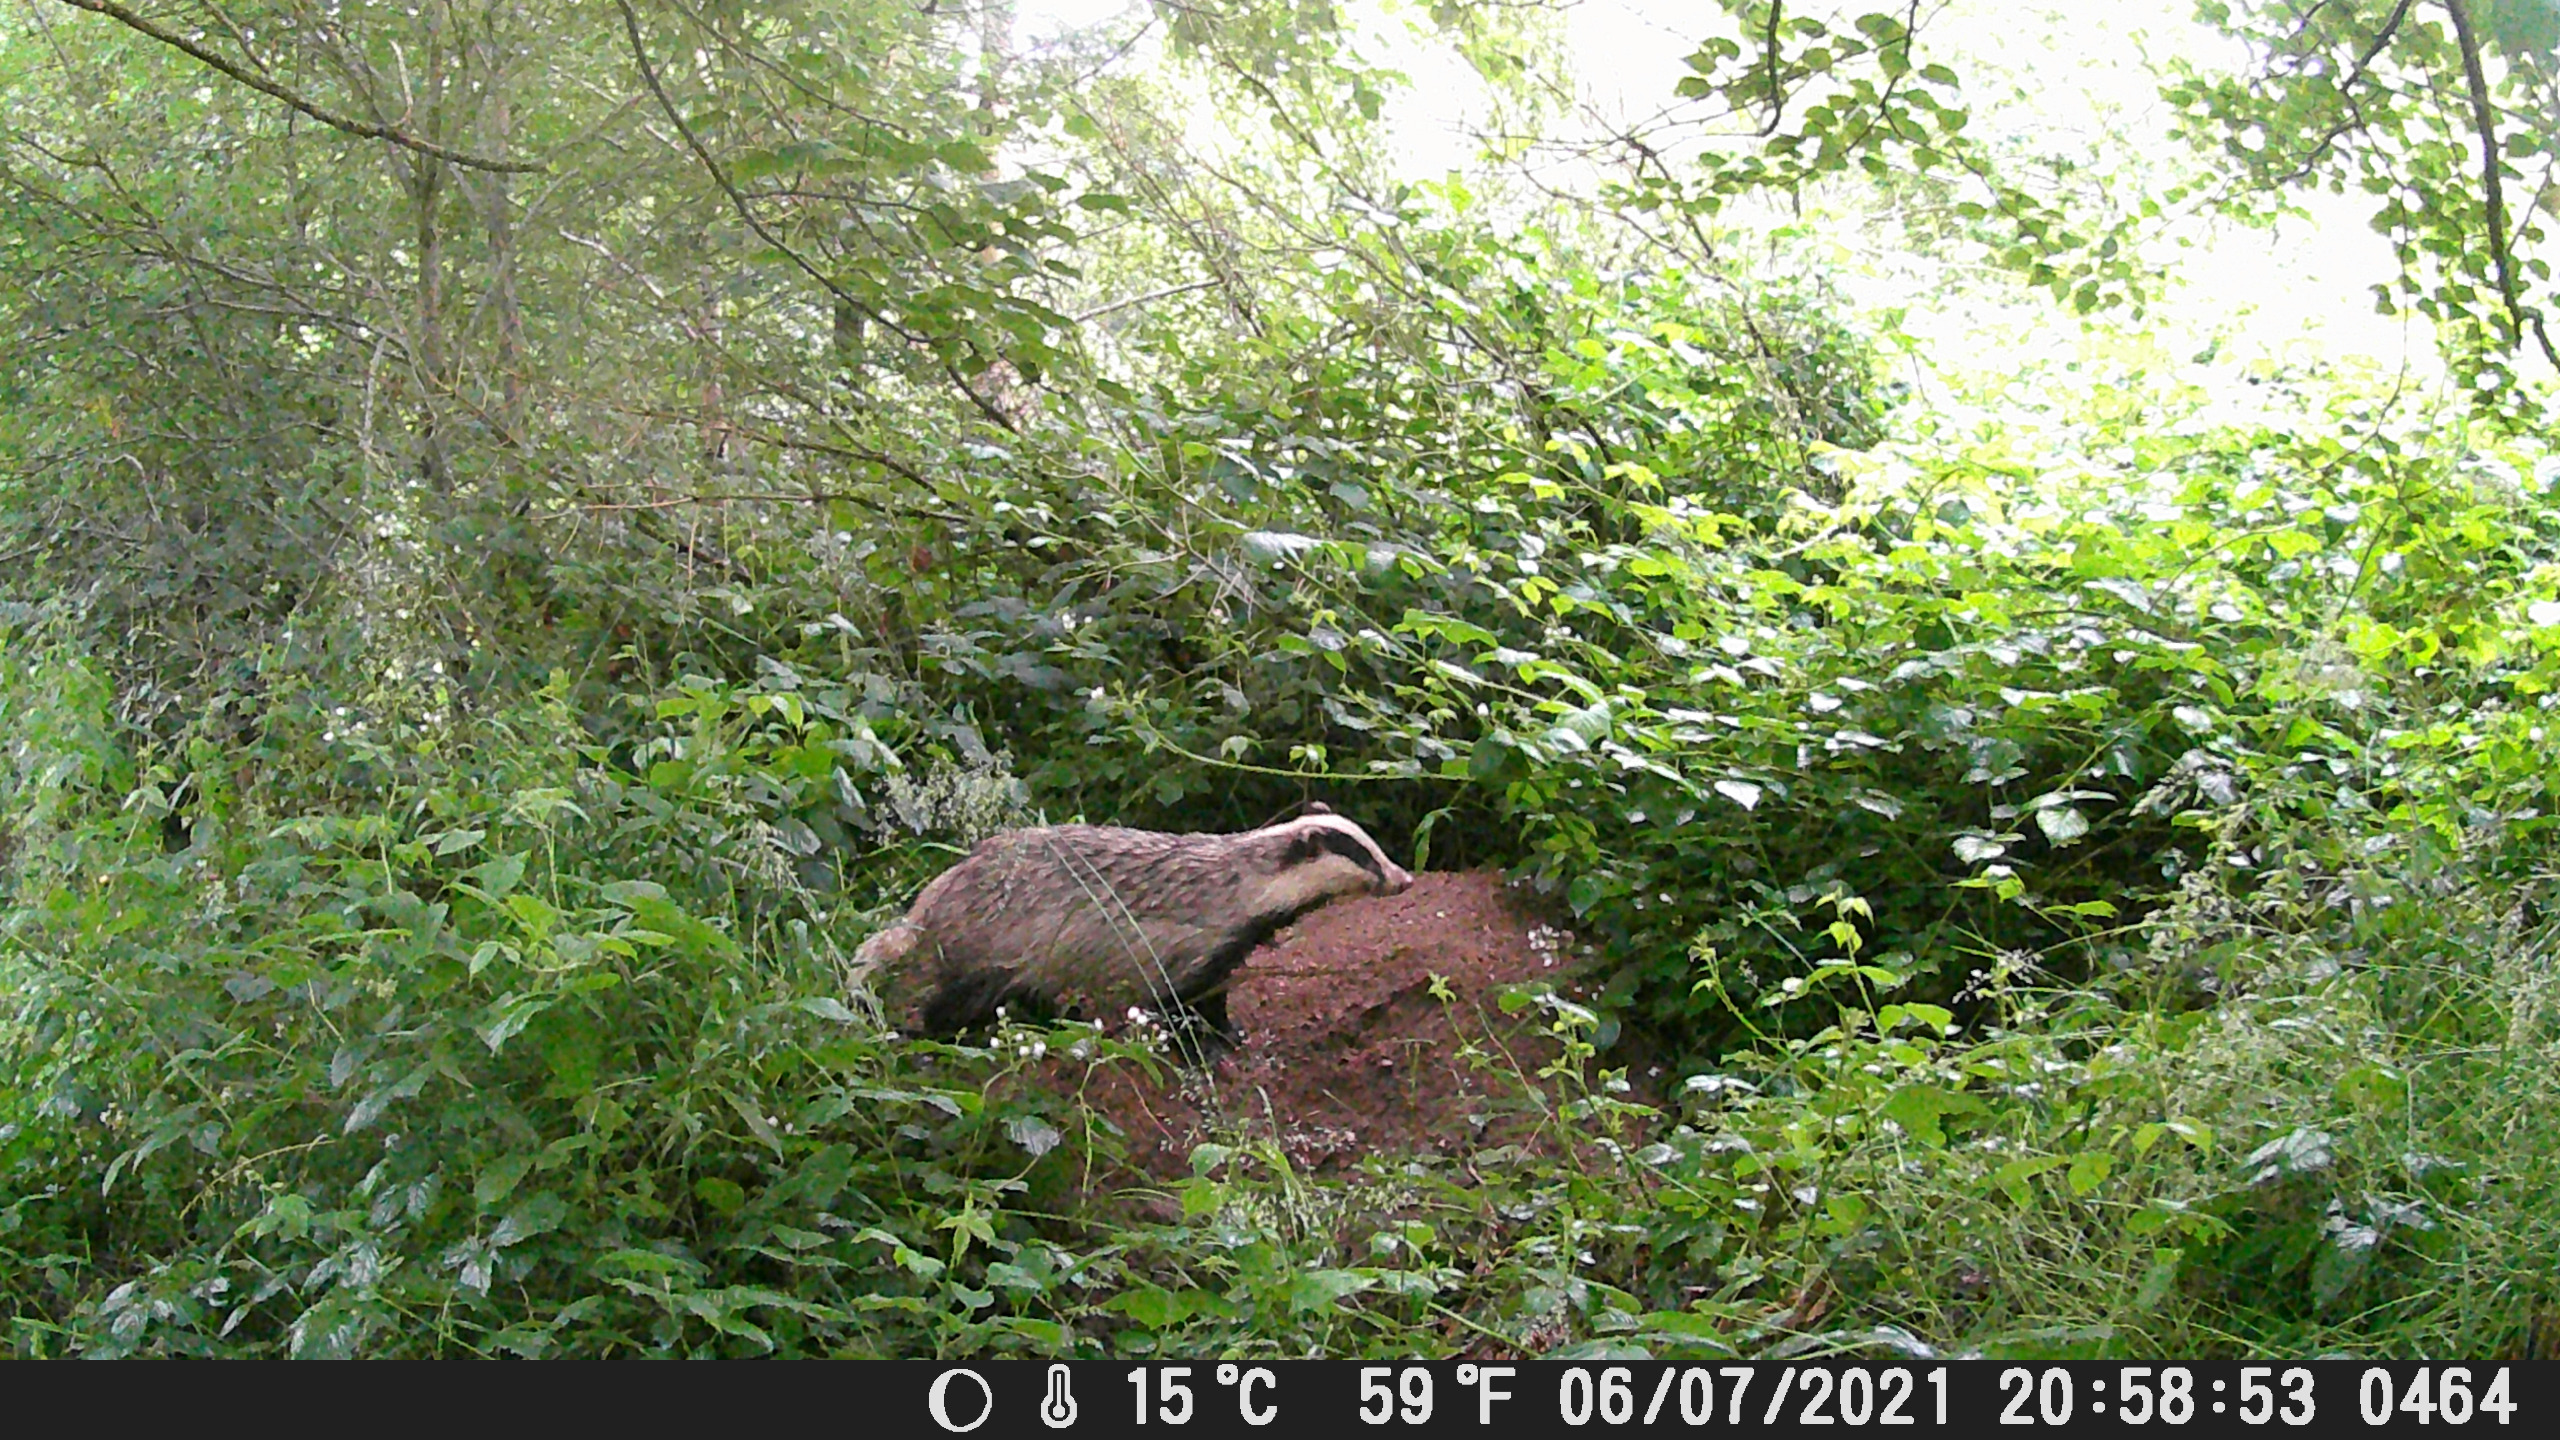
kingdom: Animalia
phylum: Chordata
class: Mammalia
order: Carnivora
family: Mustelidae
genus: Meles
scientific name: Meles meles
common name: Grævling
